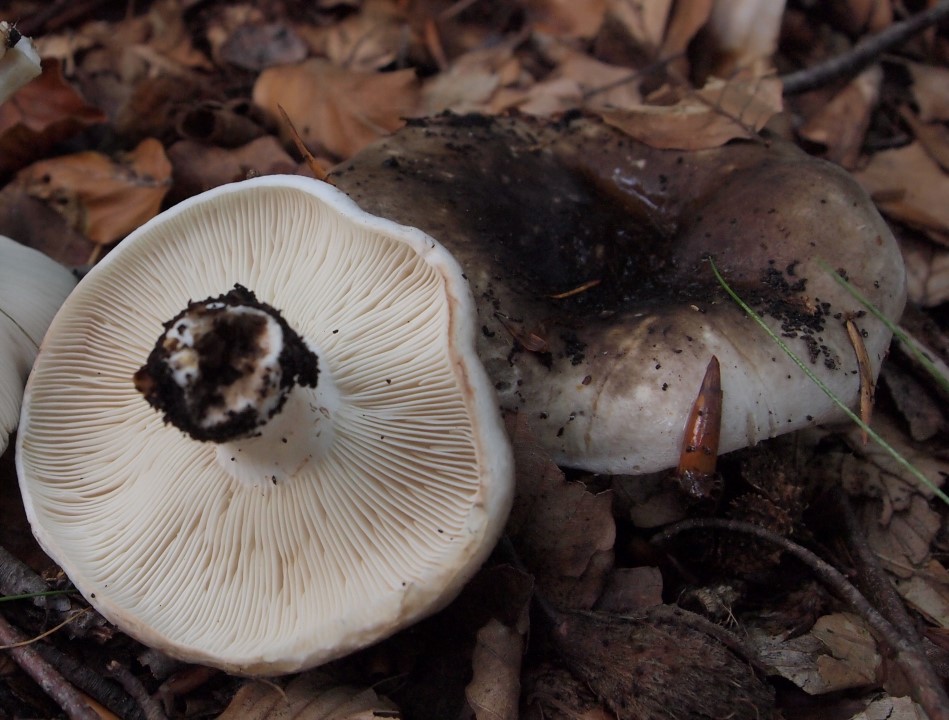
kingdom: Fungi
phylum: Basidiomycota
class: Agaricomycetes
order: Russulales
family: Russulaceae
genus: Russula
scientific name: Russula densifolia
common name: tætbladet skørhat
